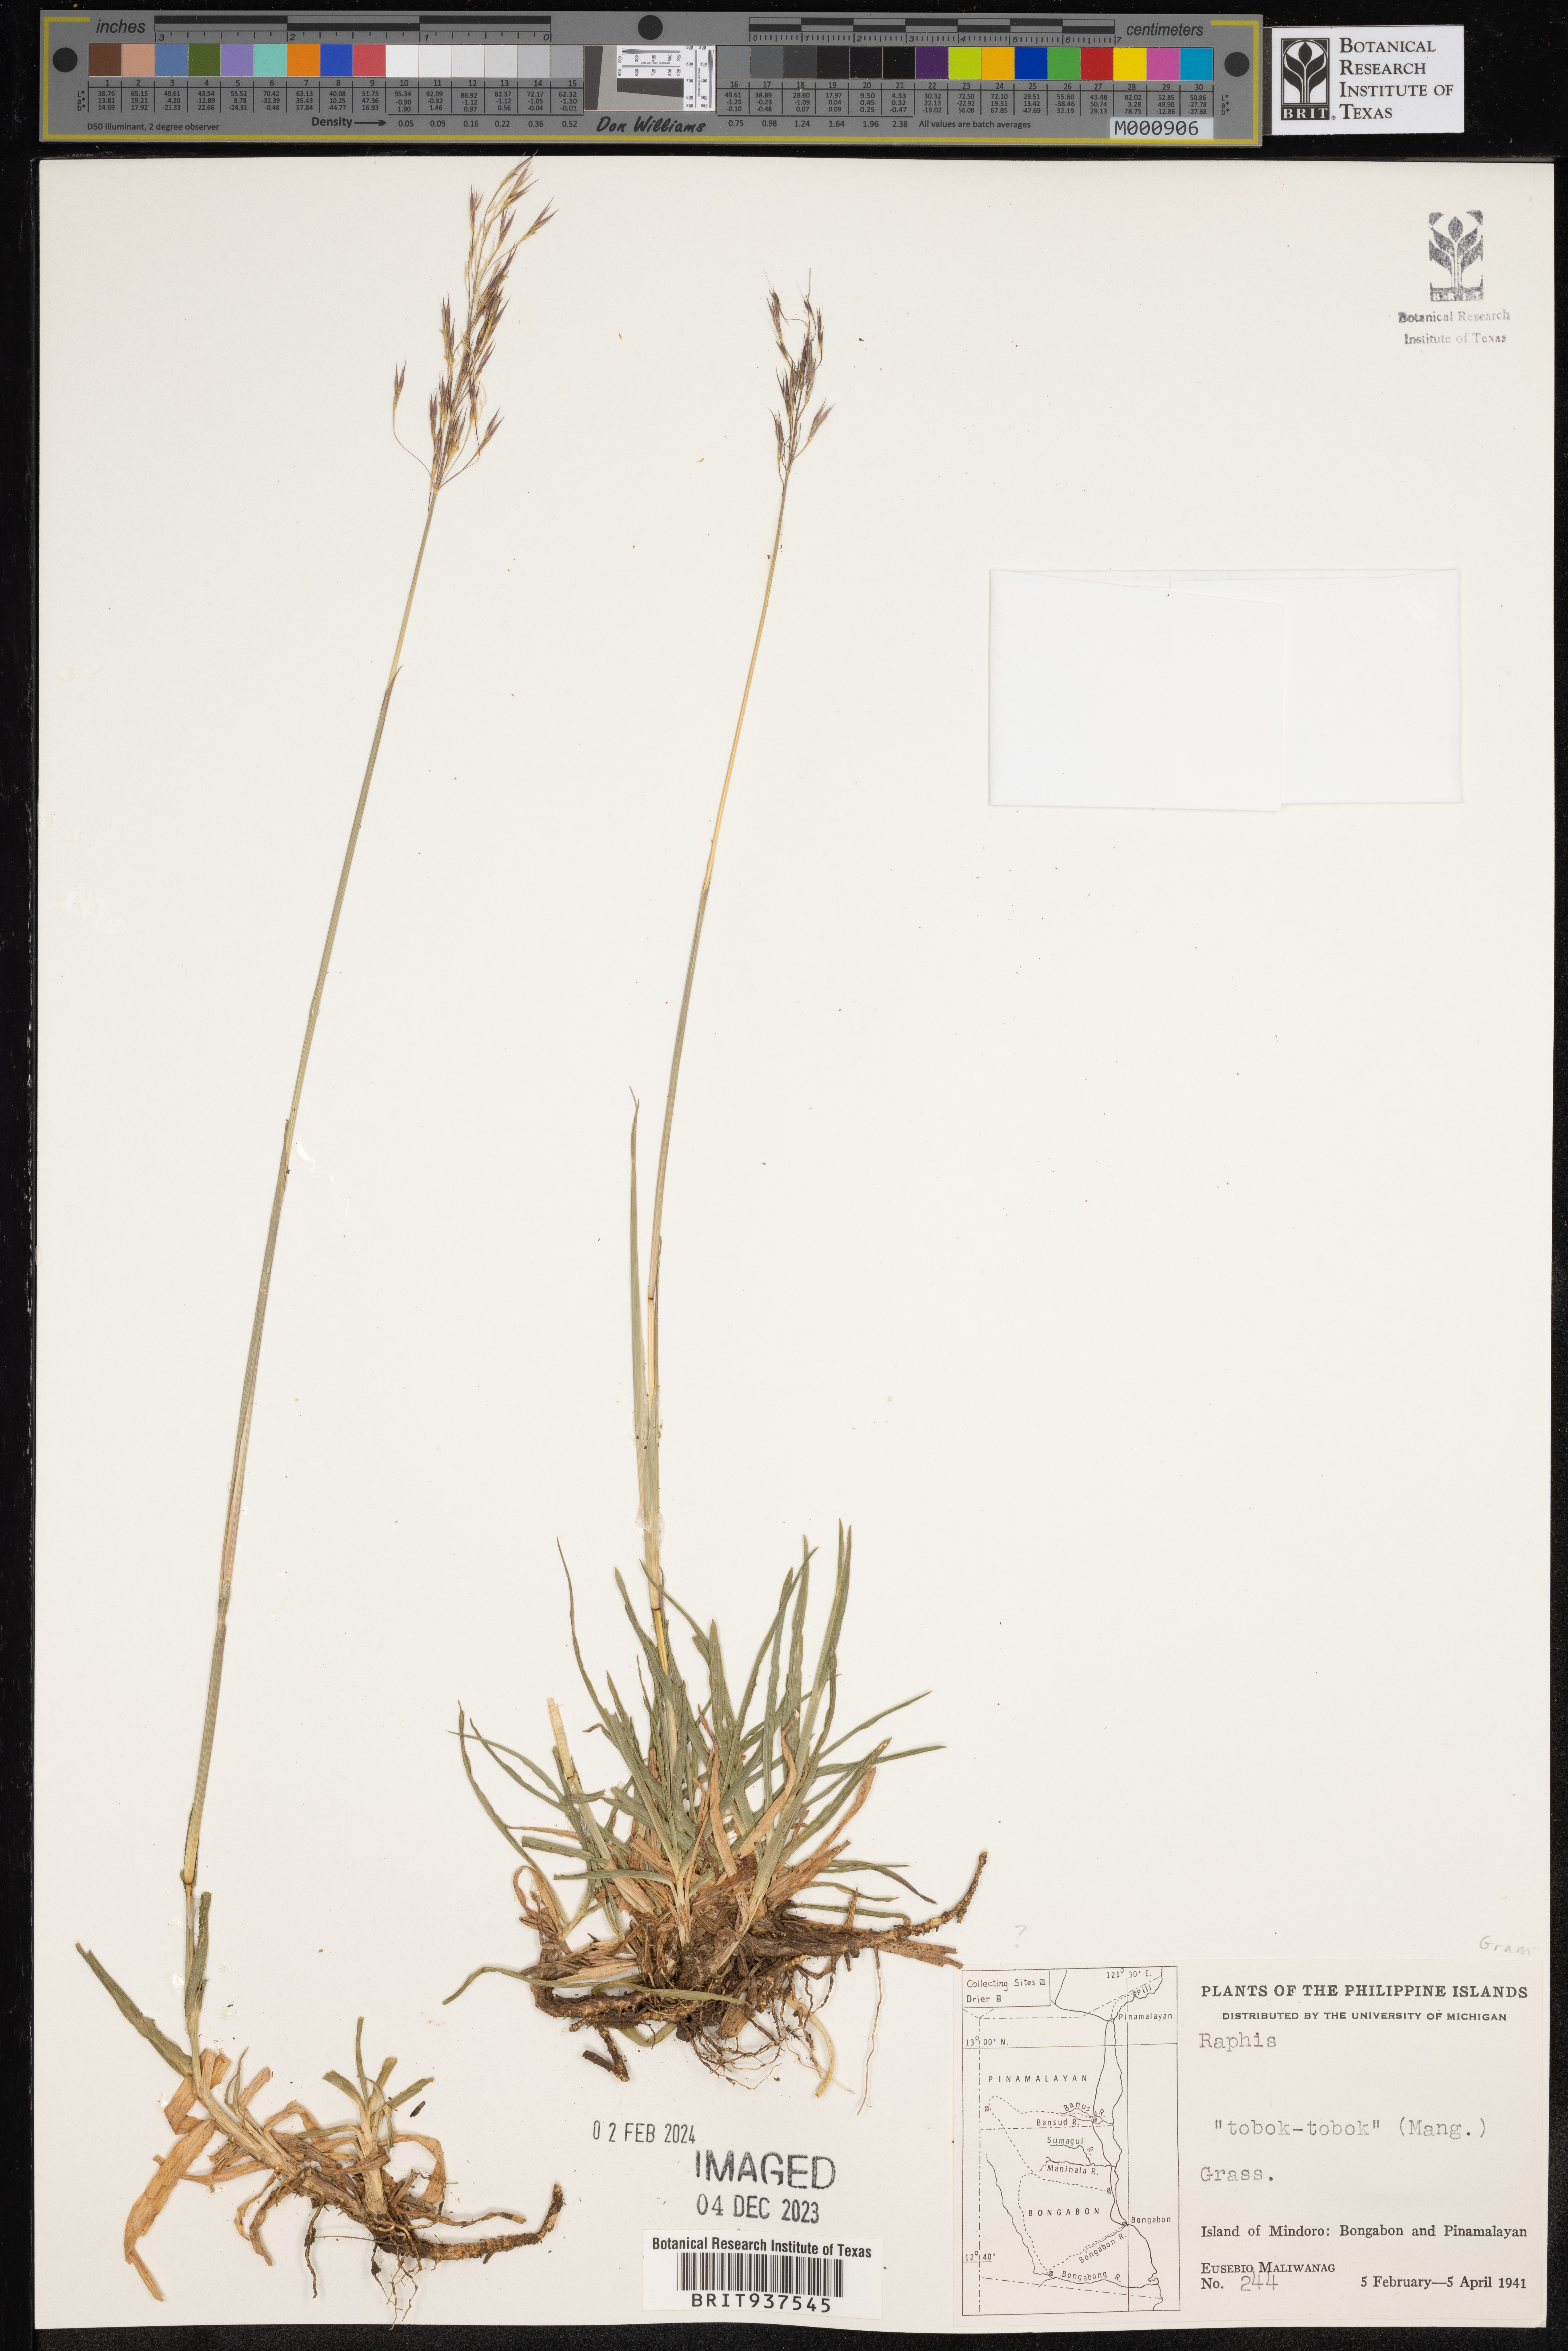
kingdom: Plantae
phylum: Tracheophyta
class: Liliopsida
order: Poales
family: Poaceae
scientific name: Poaceae
